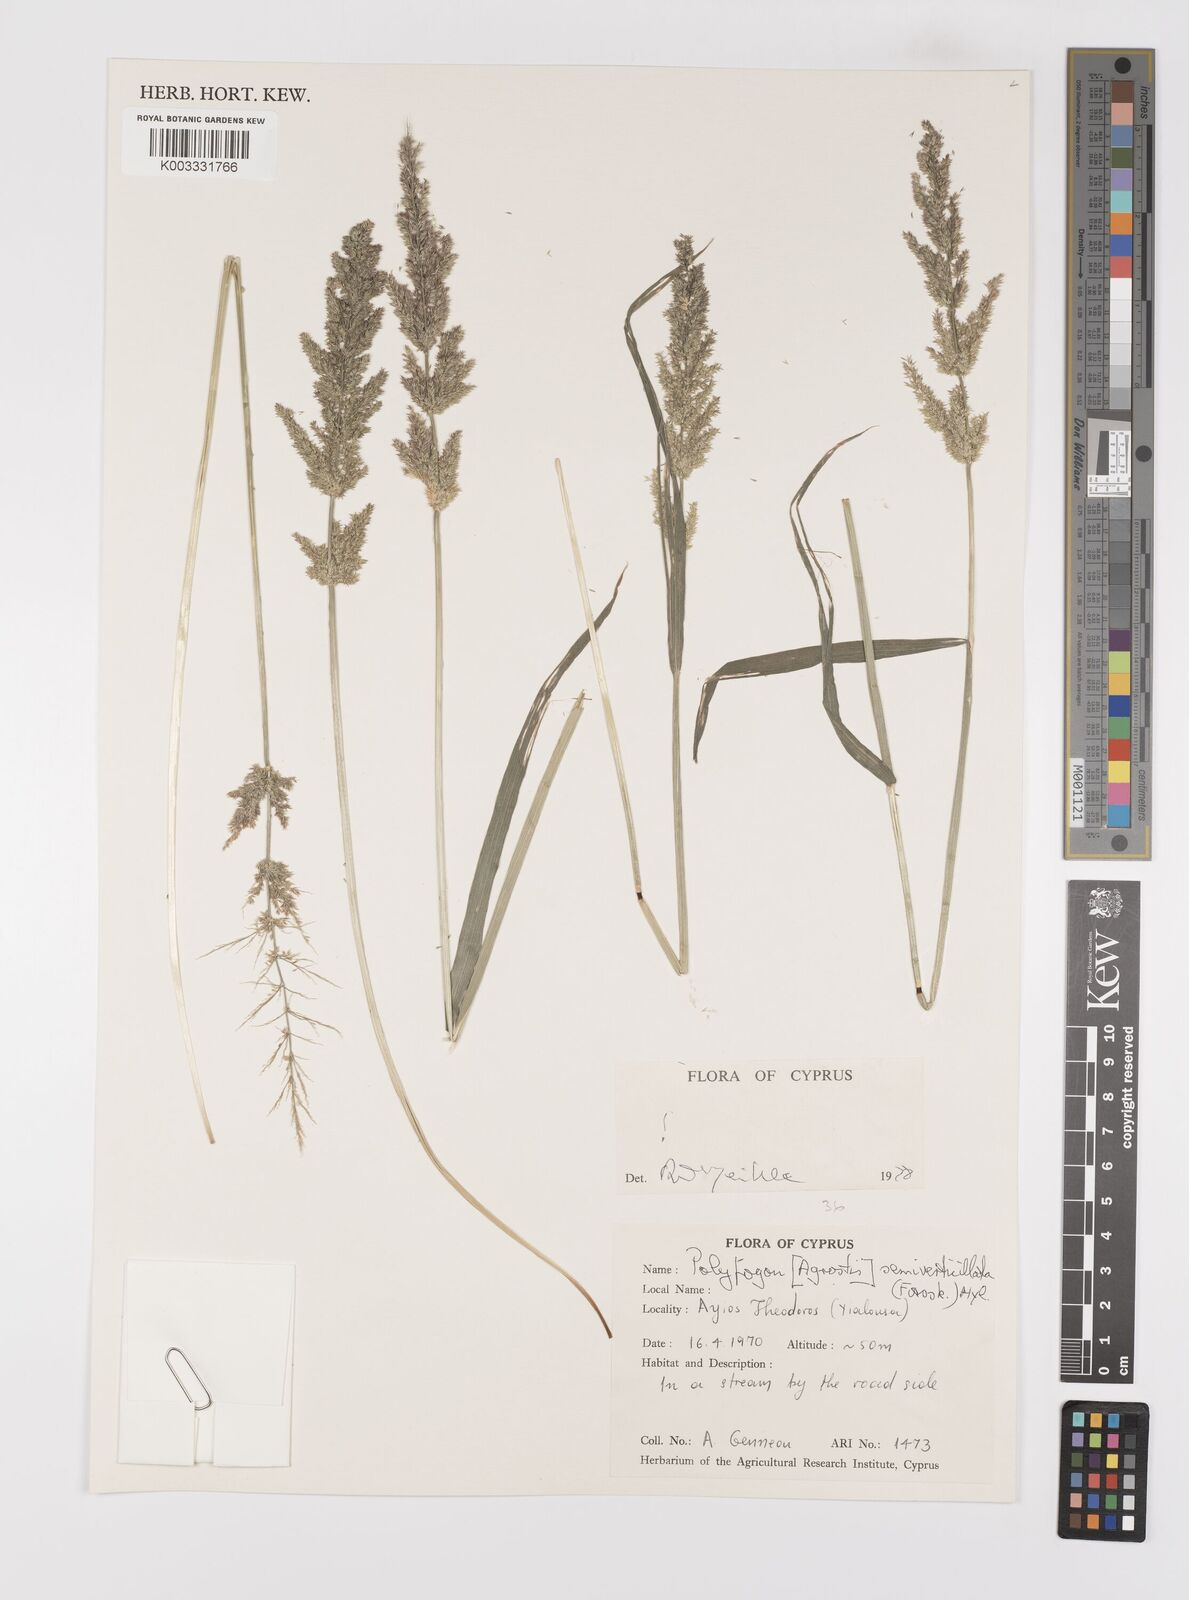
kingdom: Plantae
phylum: Tracheophyta
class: Liliopsida
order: Poales
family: Poaceae
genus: Polypogon
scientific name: Polypogon viridis
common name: Water bent
